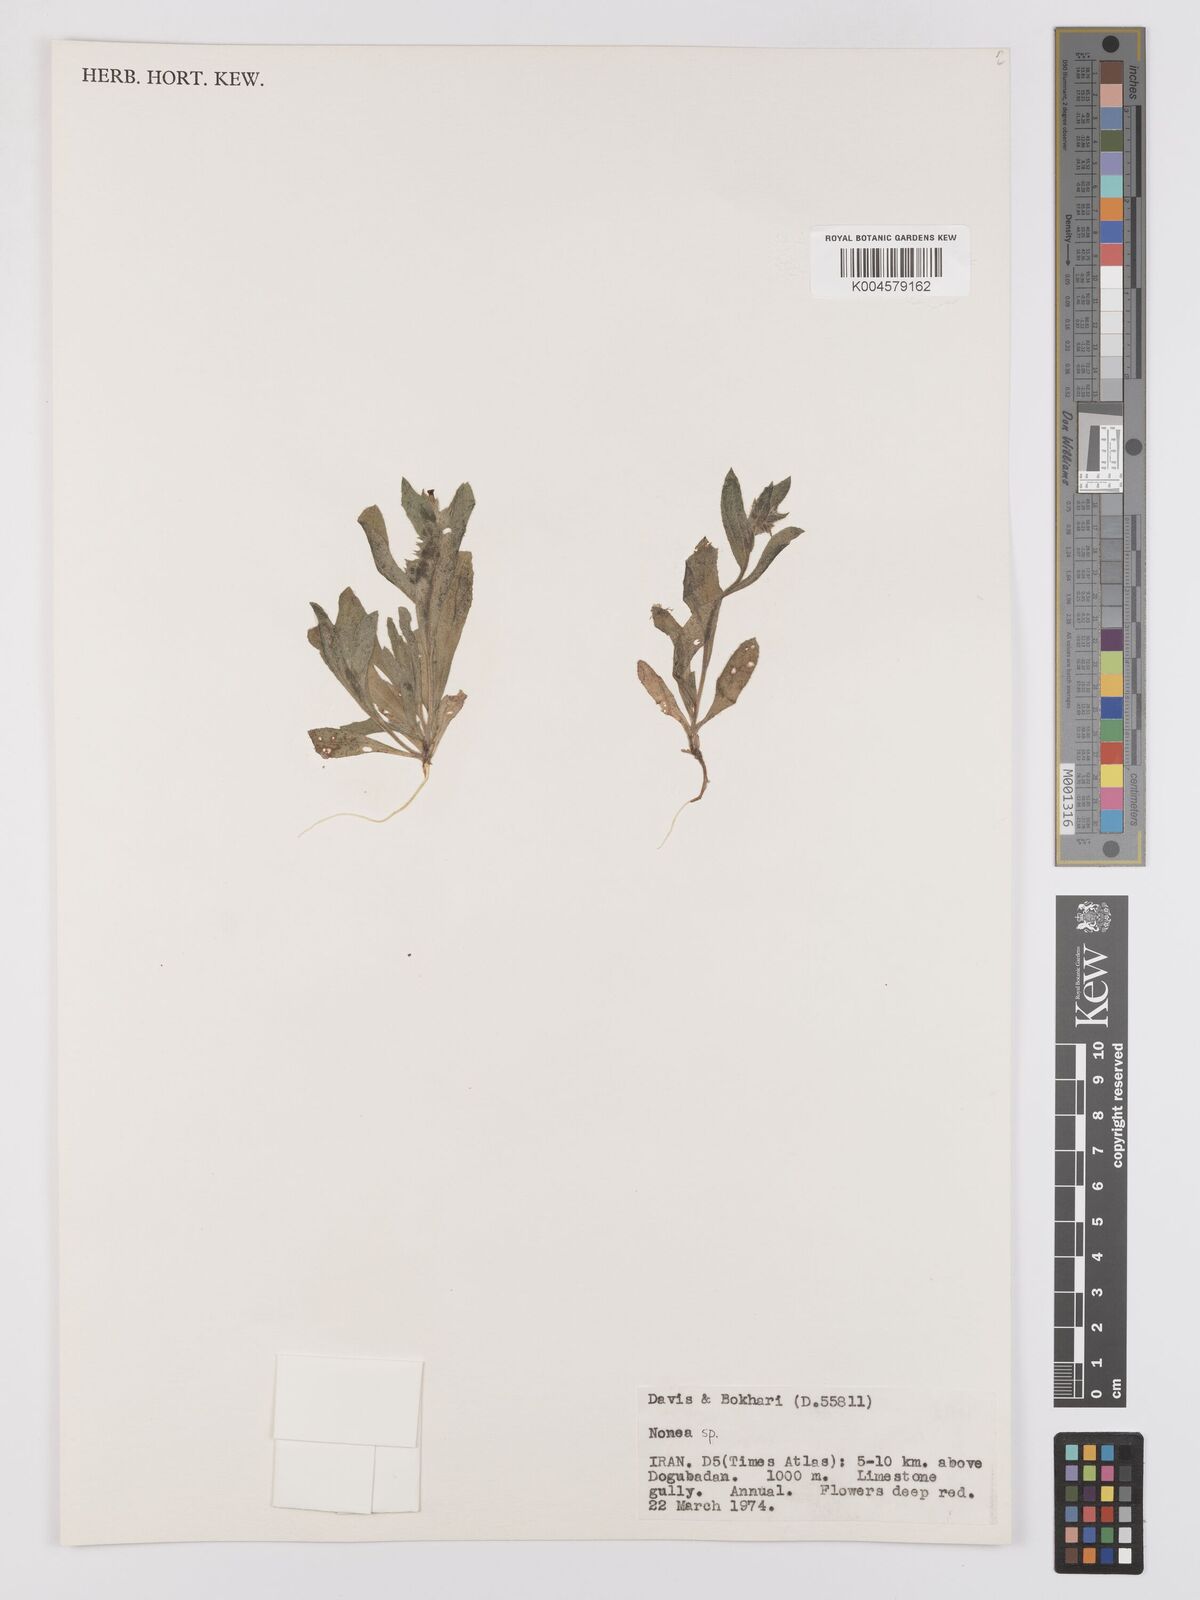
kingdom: Plantae
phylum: Tracheophyta
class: Magnoliopsida
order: Boraginales
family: Boraginaceae
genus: Nonea
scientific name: Nonea
